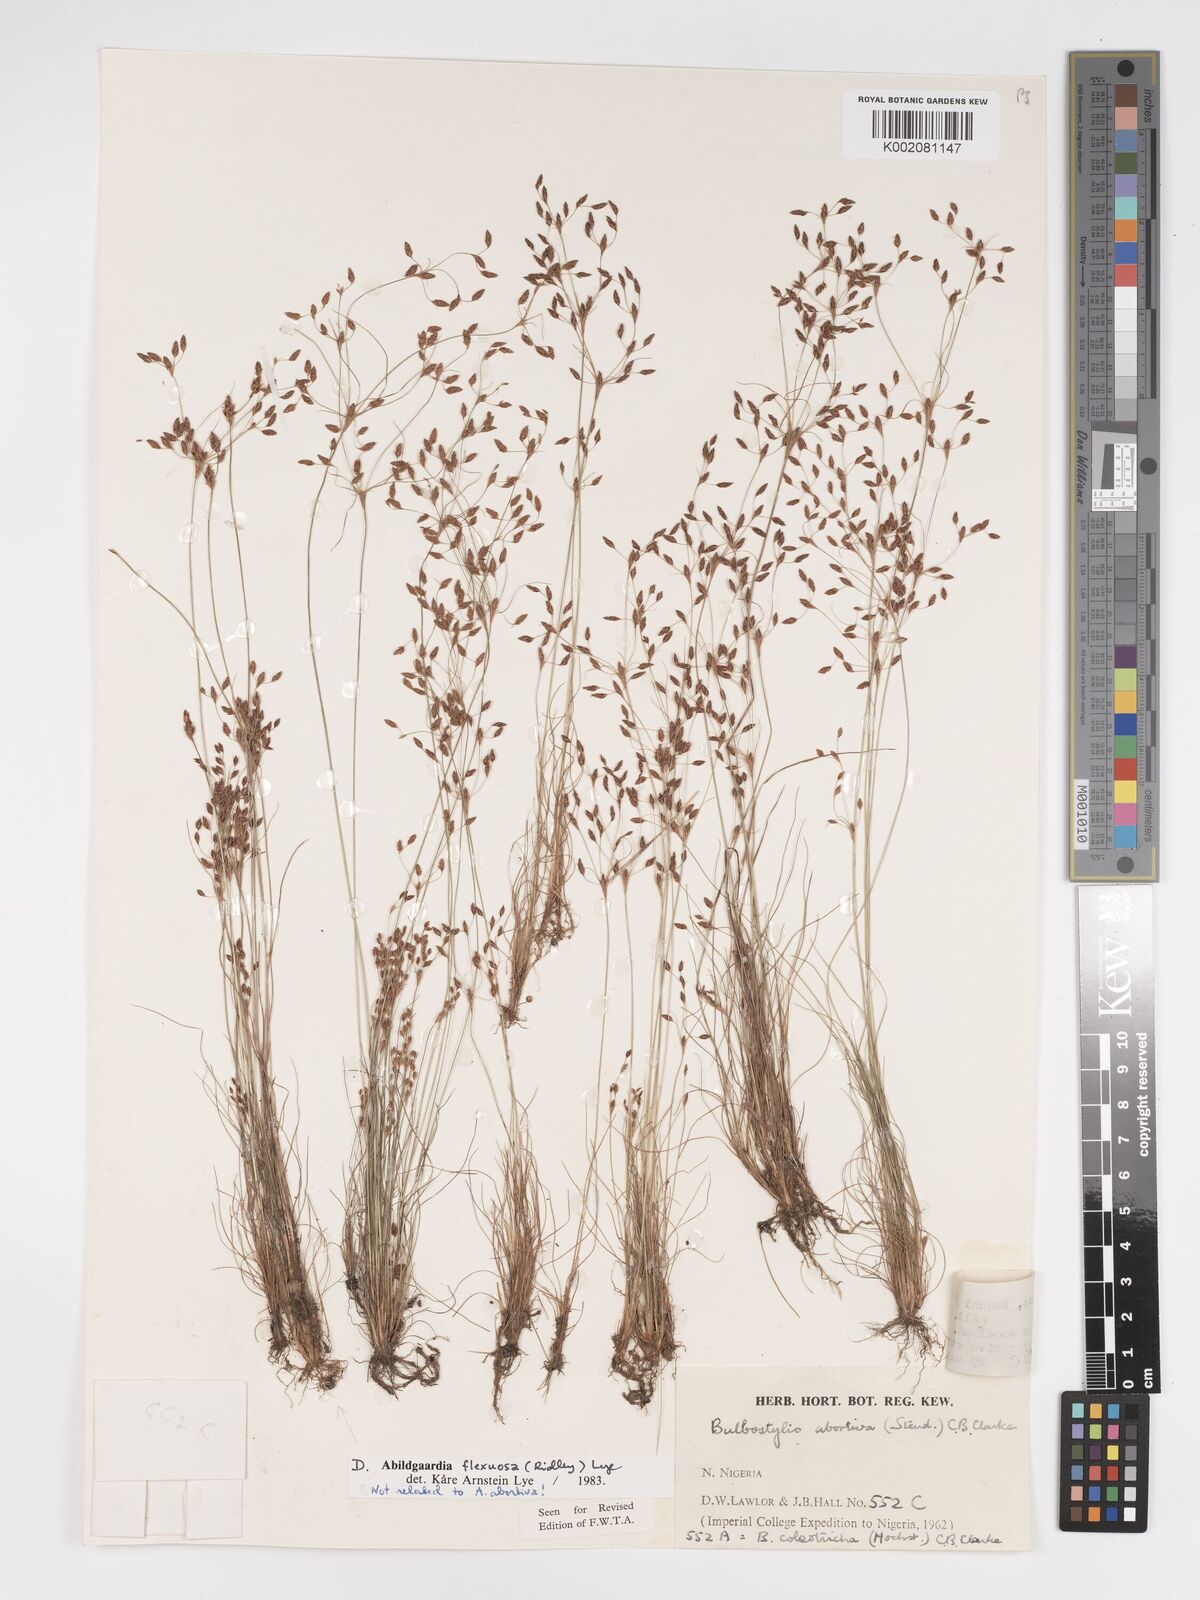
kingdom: Plantae
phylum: Tracheophyta
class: Liliopsida
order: Poales
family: Cyperaceae
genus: Bulbostylis
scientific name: Bulbostylis abortiva
